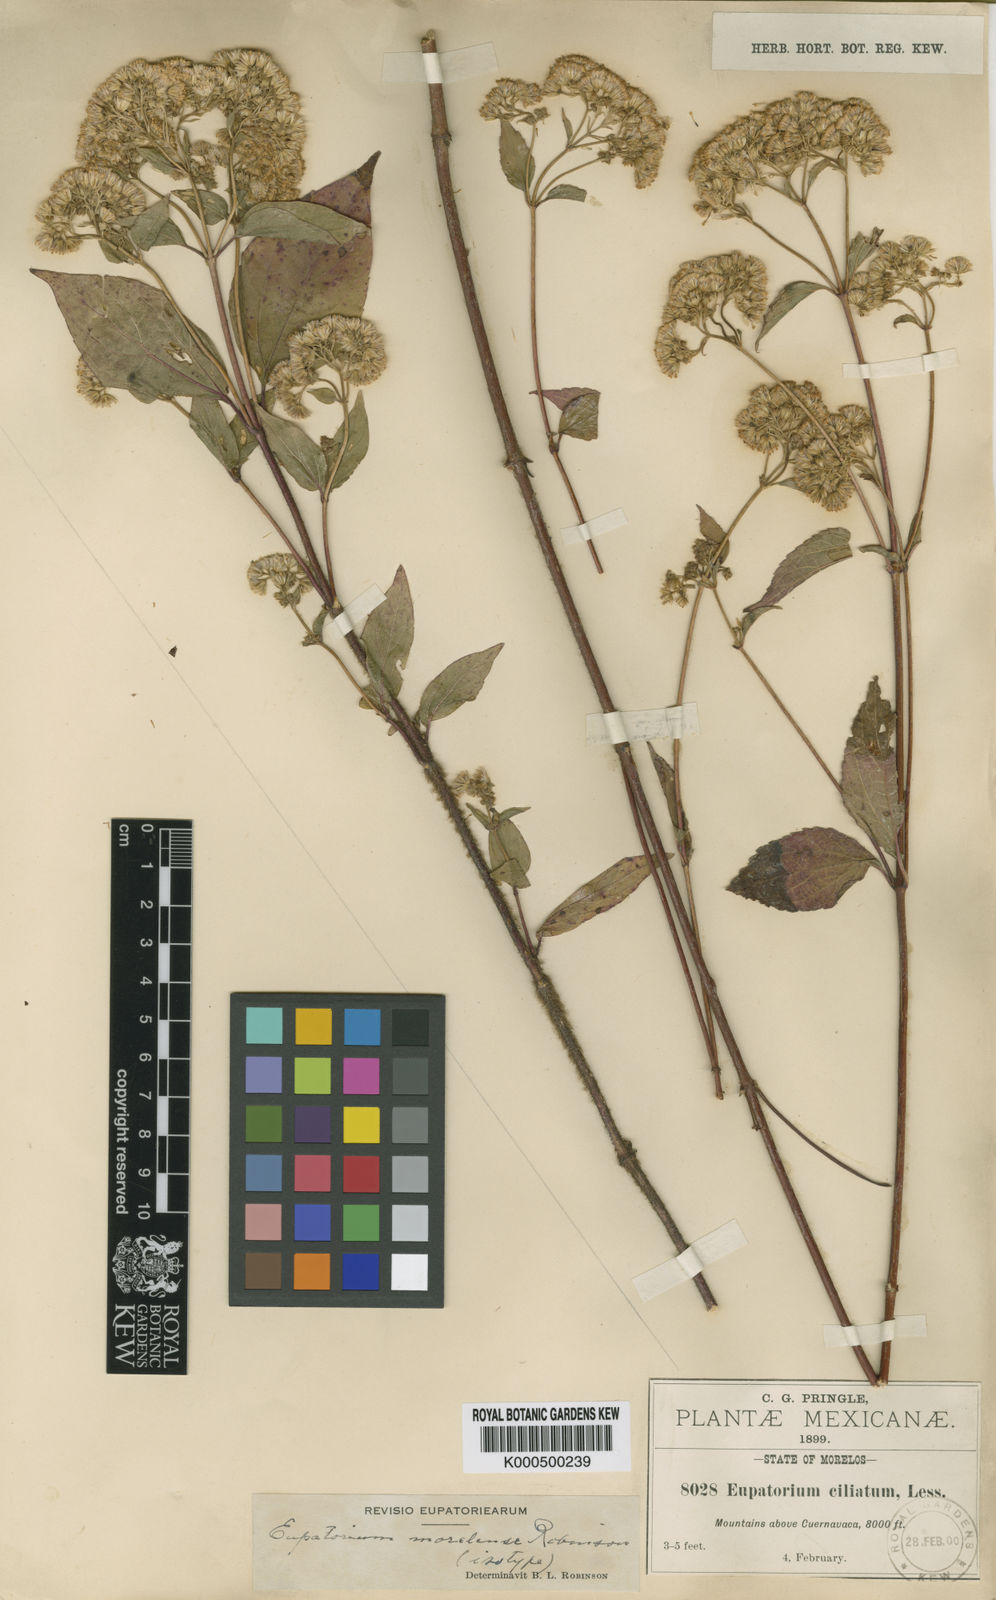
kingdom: Plantae
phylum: Tracheophyta
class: Magnoliopsida
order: Asterales
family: Asteraceae
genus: Ageratina
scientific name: Ageratina bustamenta
